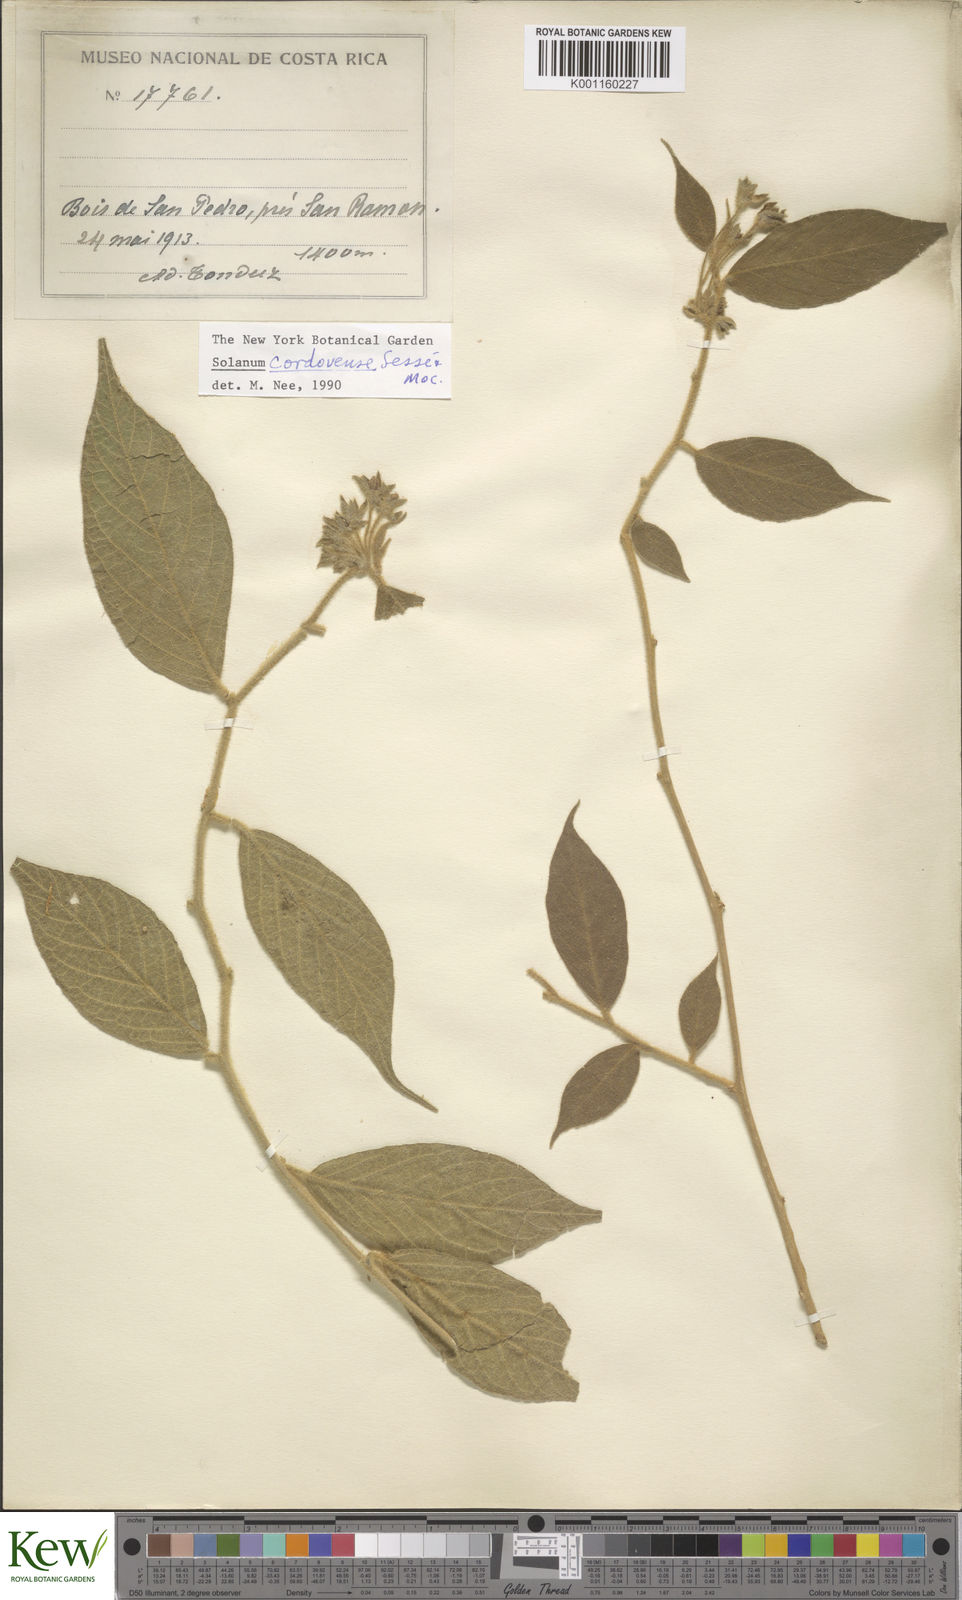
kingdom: Plantae
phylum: Tracheophyta
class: Magnoliopsida
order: Solanales
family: Solanaceae
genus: Solanum
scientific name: Solanum
